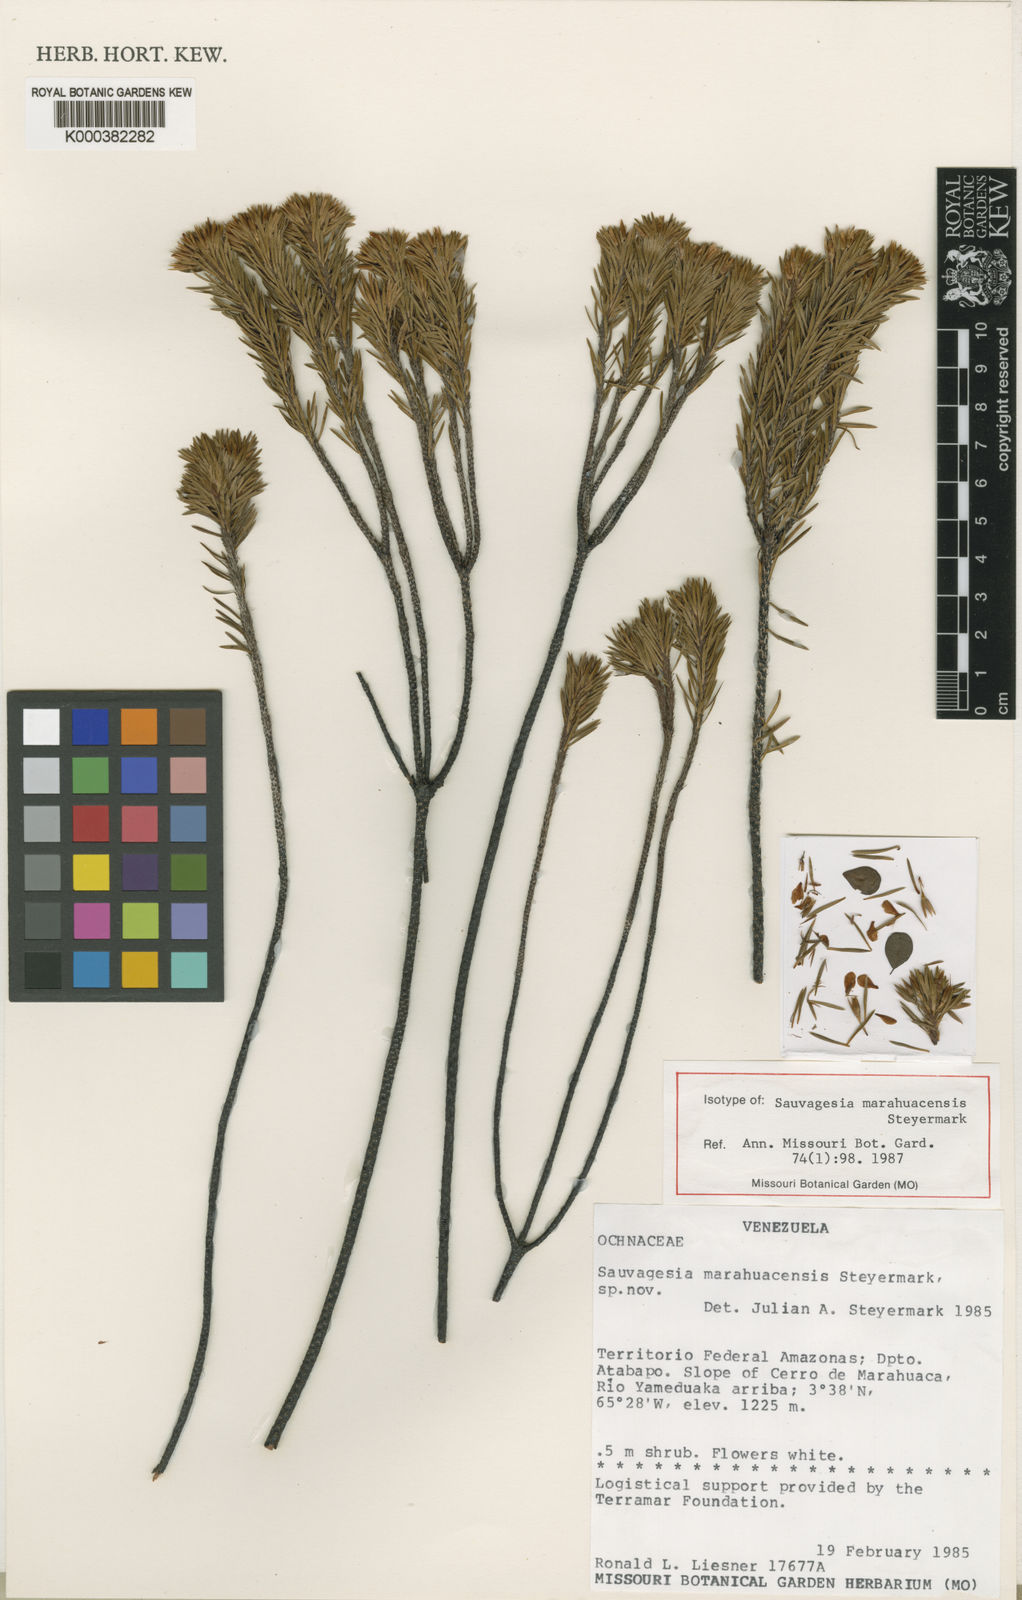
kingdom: Plantae
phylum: Tracheophyta
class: Magnoliopsida
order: Malpighiales
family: Ochnaceae
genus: Sauvagesia
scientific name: Sauvagesia guianensis
